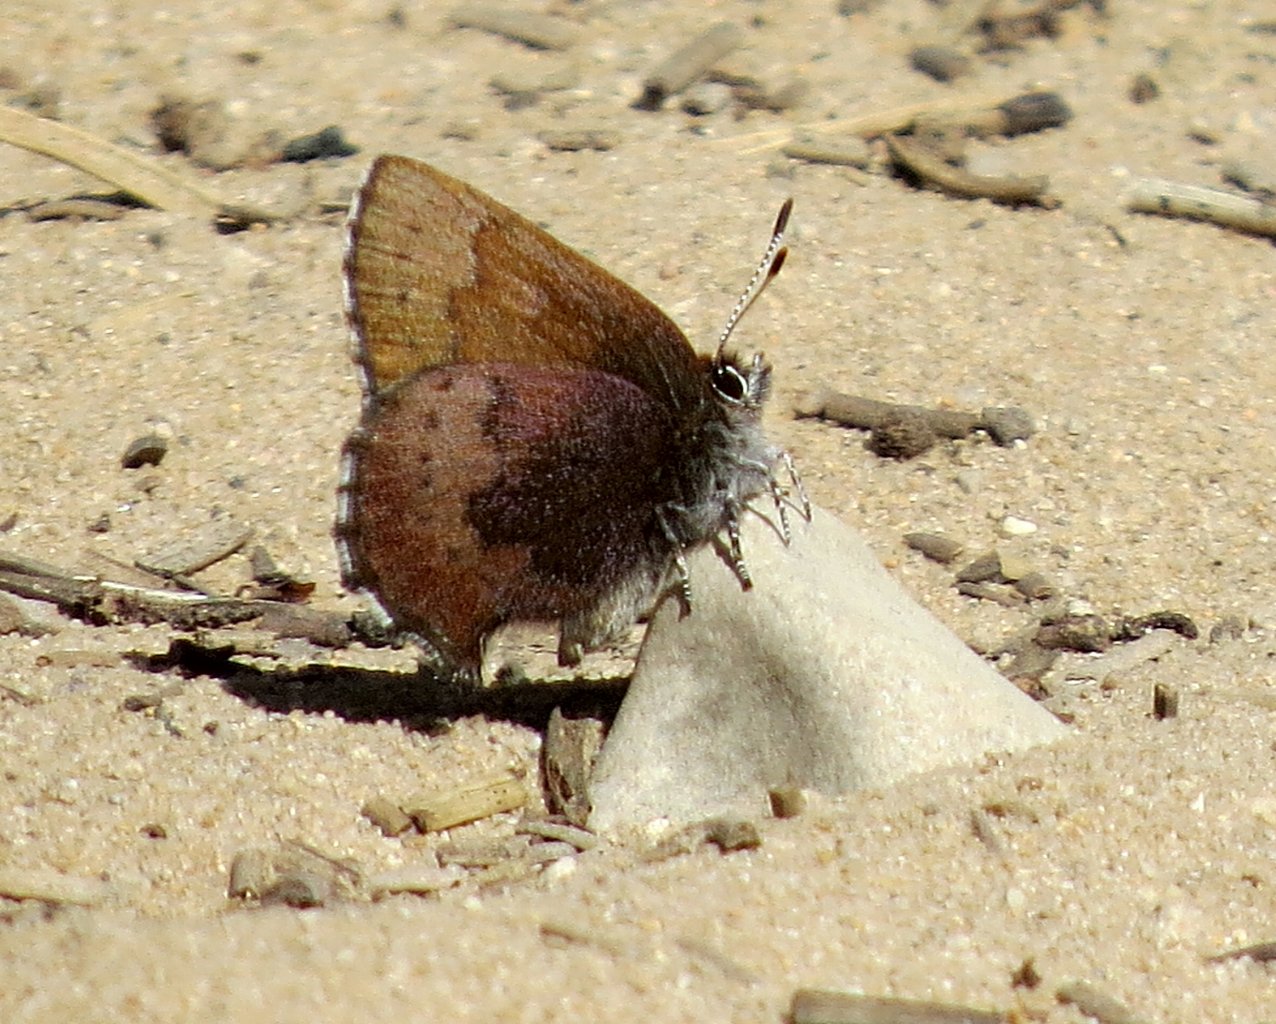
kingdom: Animalia
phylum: Arthropoda
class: Insecta
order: Lepidoptera
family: Lycaenidae
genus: Incisalia
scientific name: Incisalia irioides
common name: Brown Elfin
